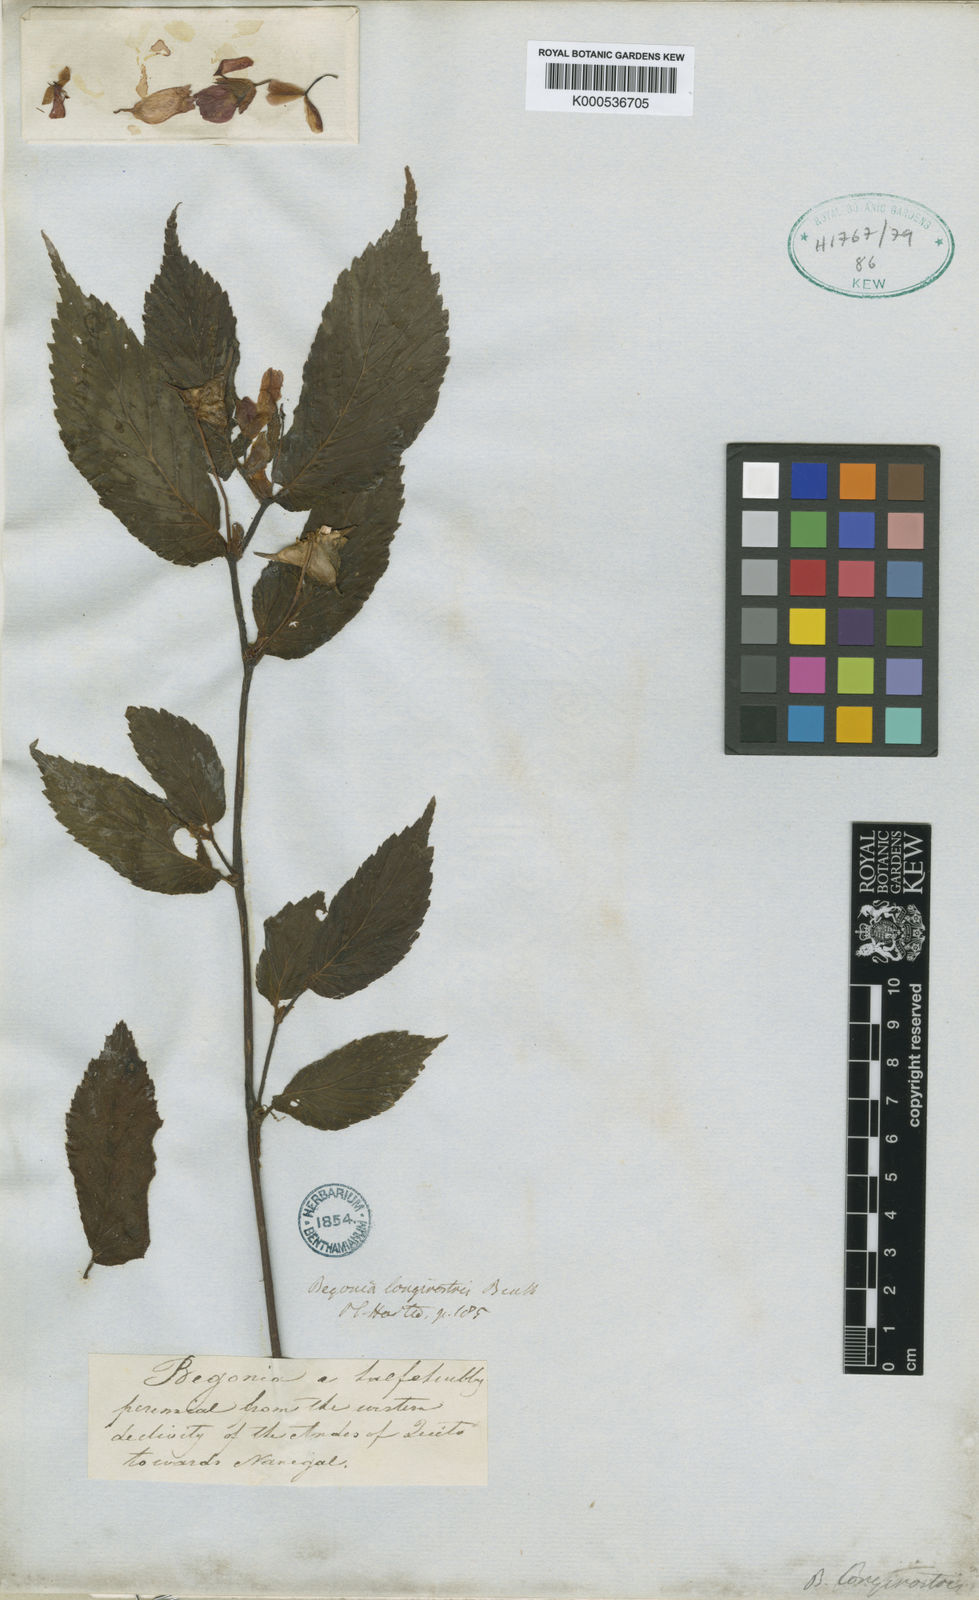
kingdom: Plantae
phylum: Tracheophyta
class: Magnoliopsida
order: Cucurbitales
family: Begoniaceae
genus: Begonia
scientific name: Begonia longirostris
